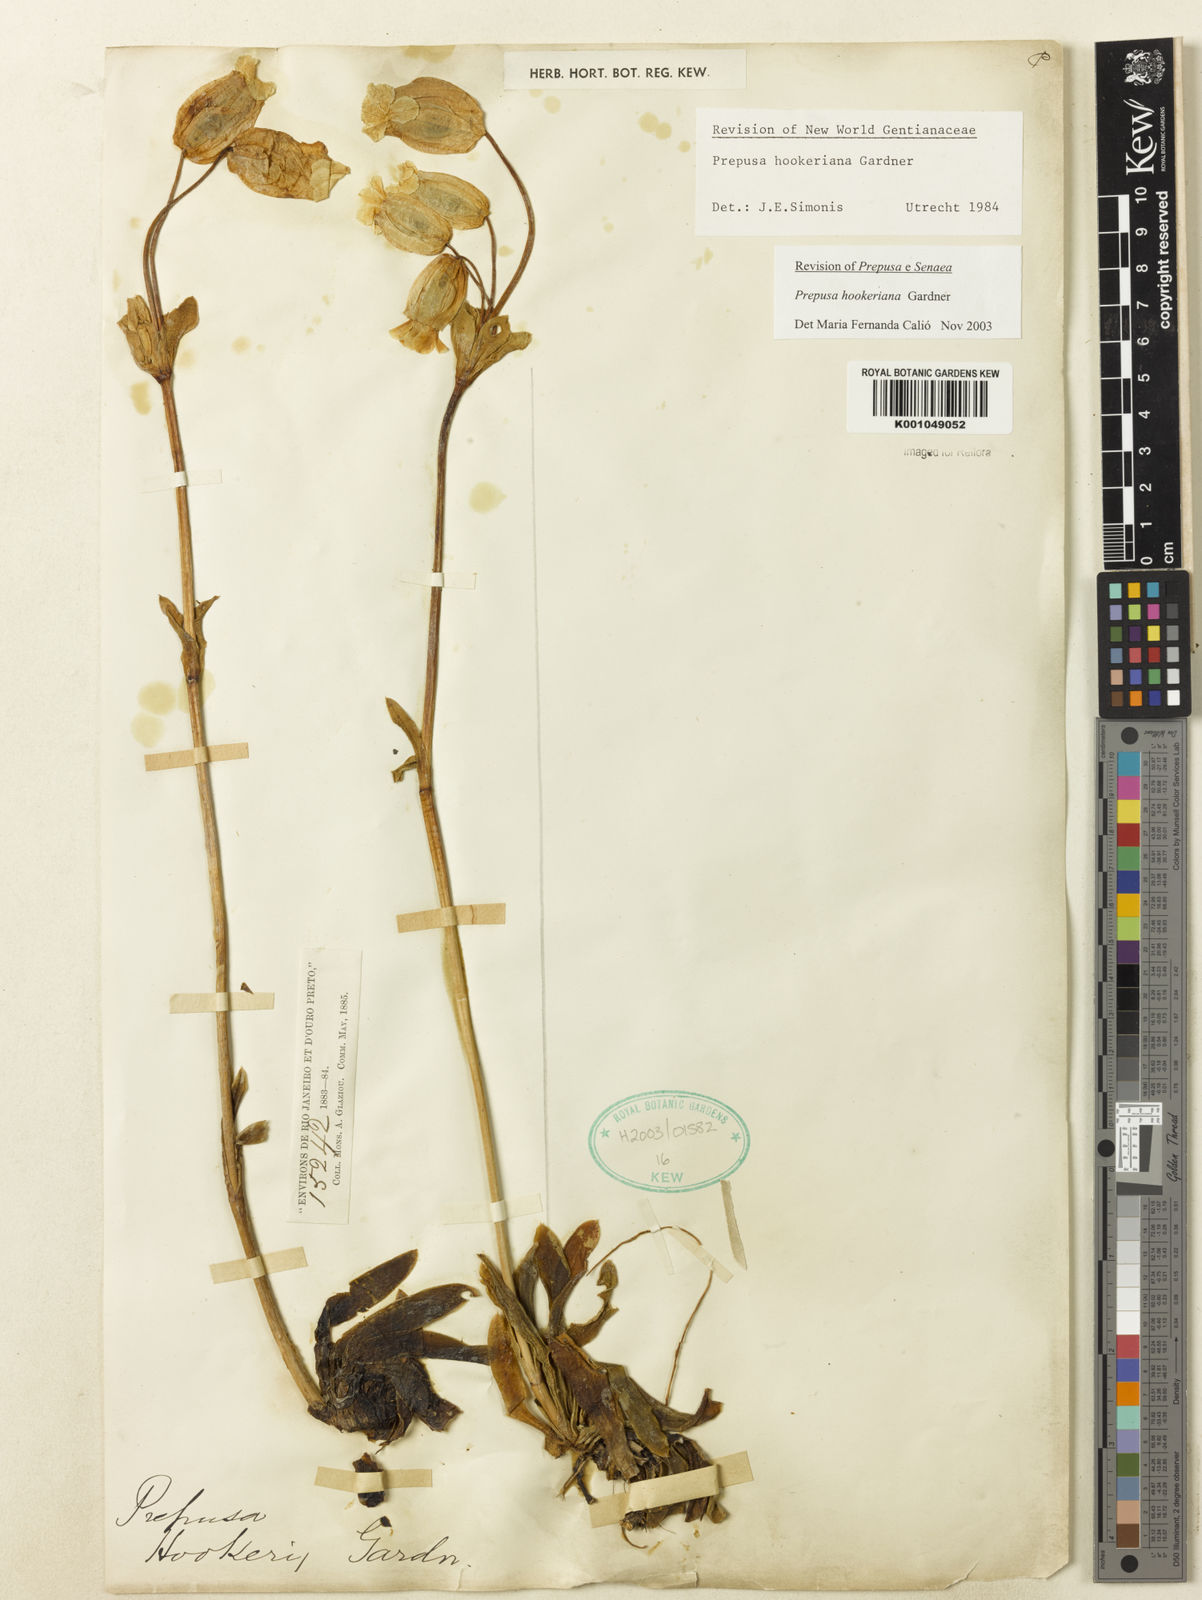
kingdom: Plantae
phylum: Tracheophyta
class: Magnoliopsida
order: Gentianales
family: Gentianaceae
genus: Prepusa
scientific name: Prepusa hookeriana
